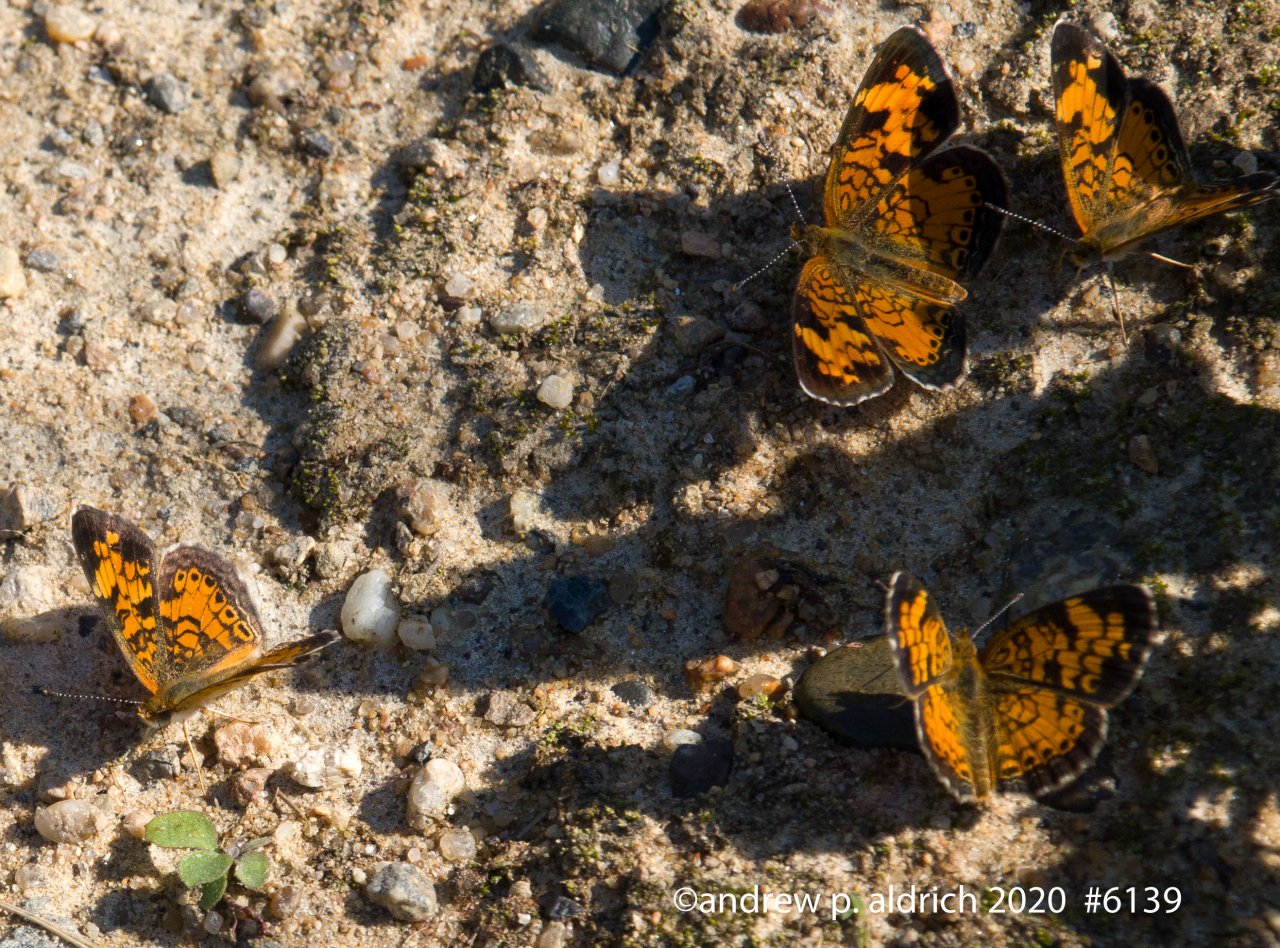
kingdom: Animalia
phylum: Arthropoda
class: Insecta
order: Lepidoptera
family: Nymphalidae
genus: Phyciodes
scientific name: Phyciodes
